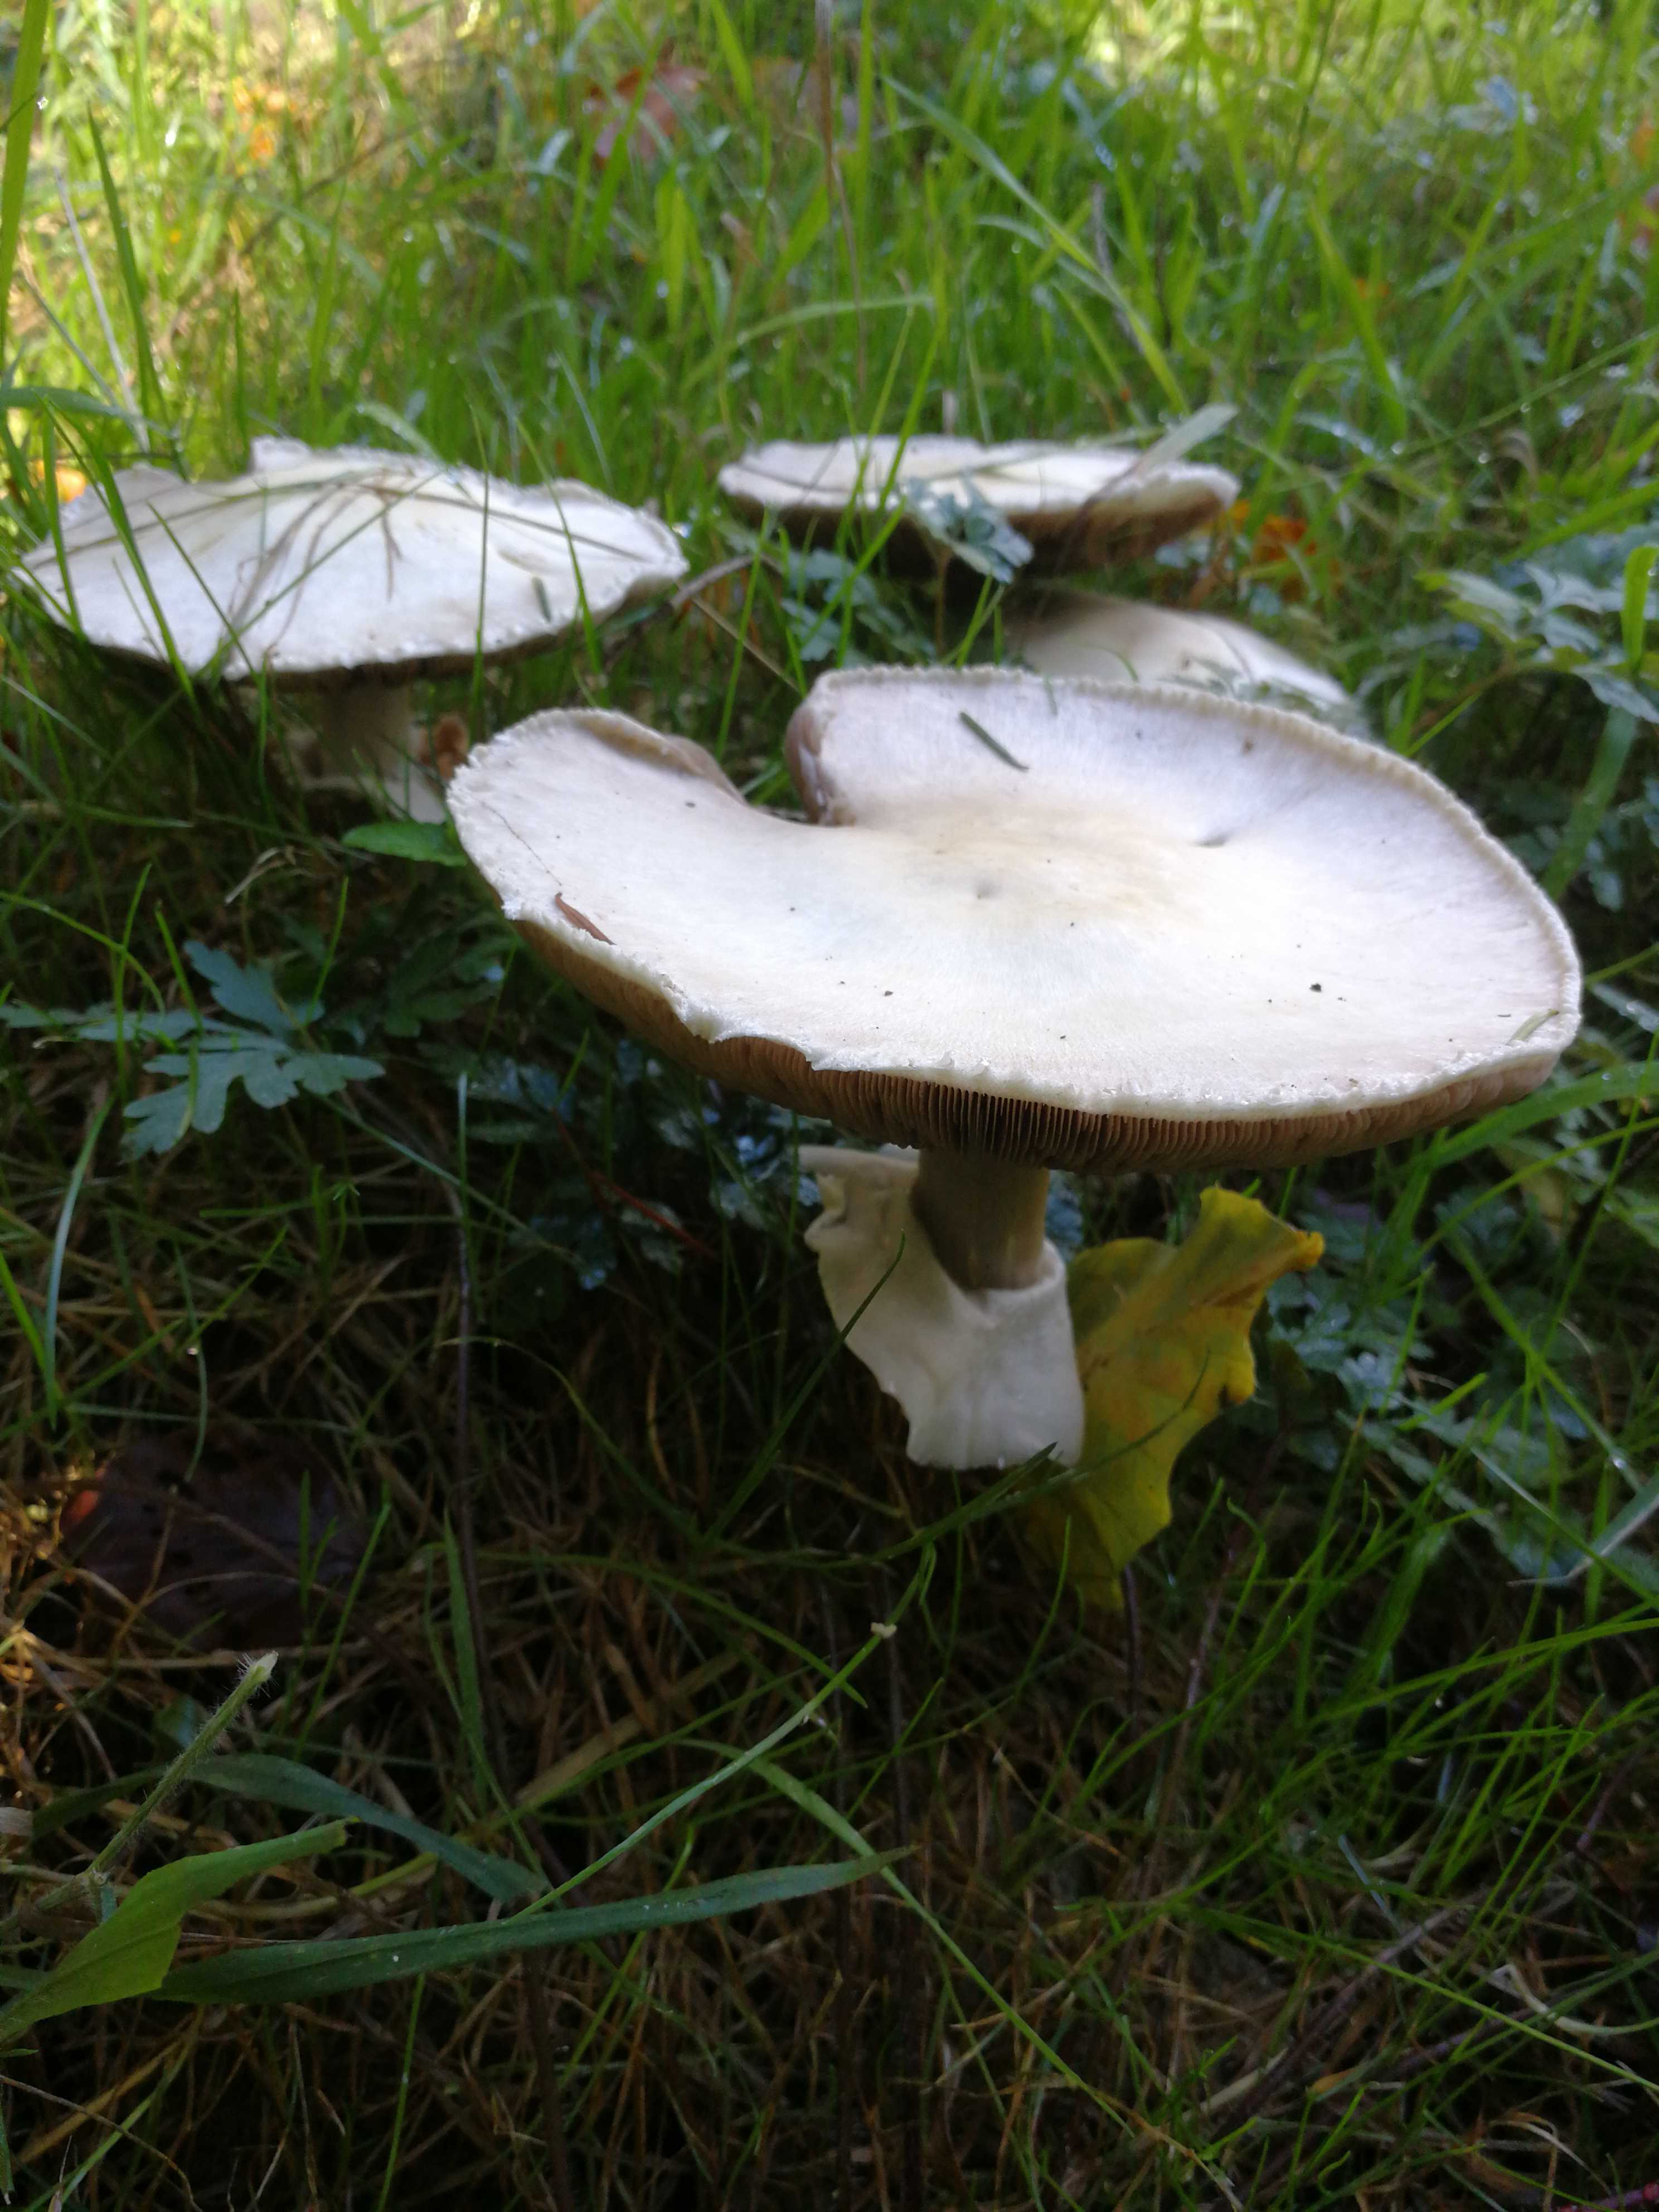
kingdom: Fungi
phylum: Basidiomycota
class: Agaricomycetes
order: Agaricales
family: Agaricaceae
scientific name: Agaricaceae
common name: champignonfamilien
